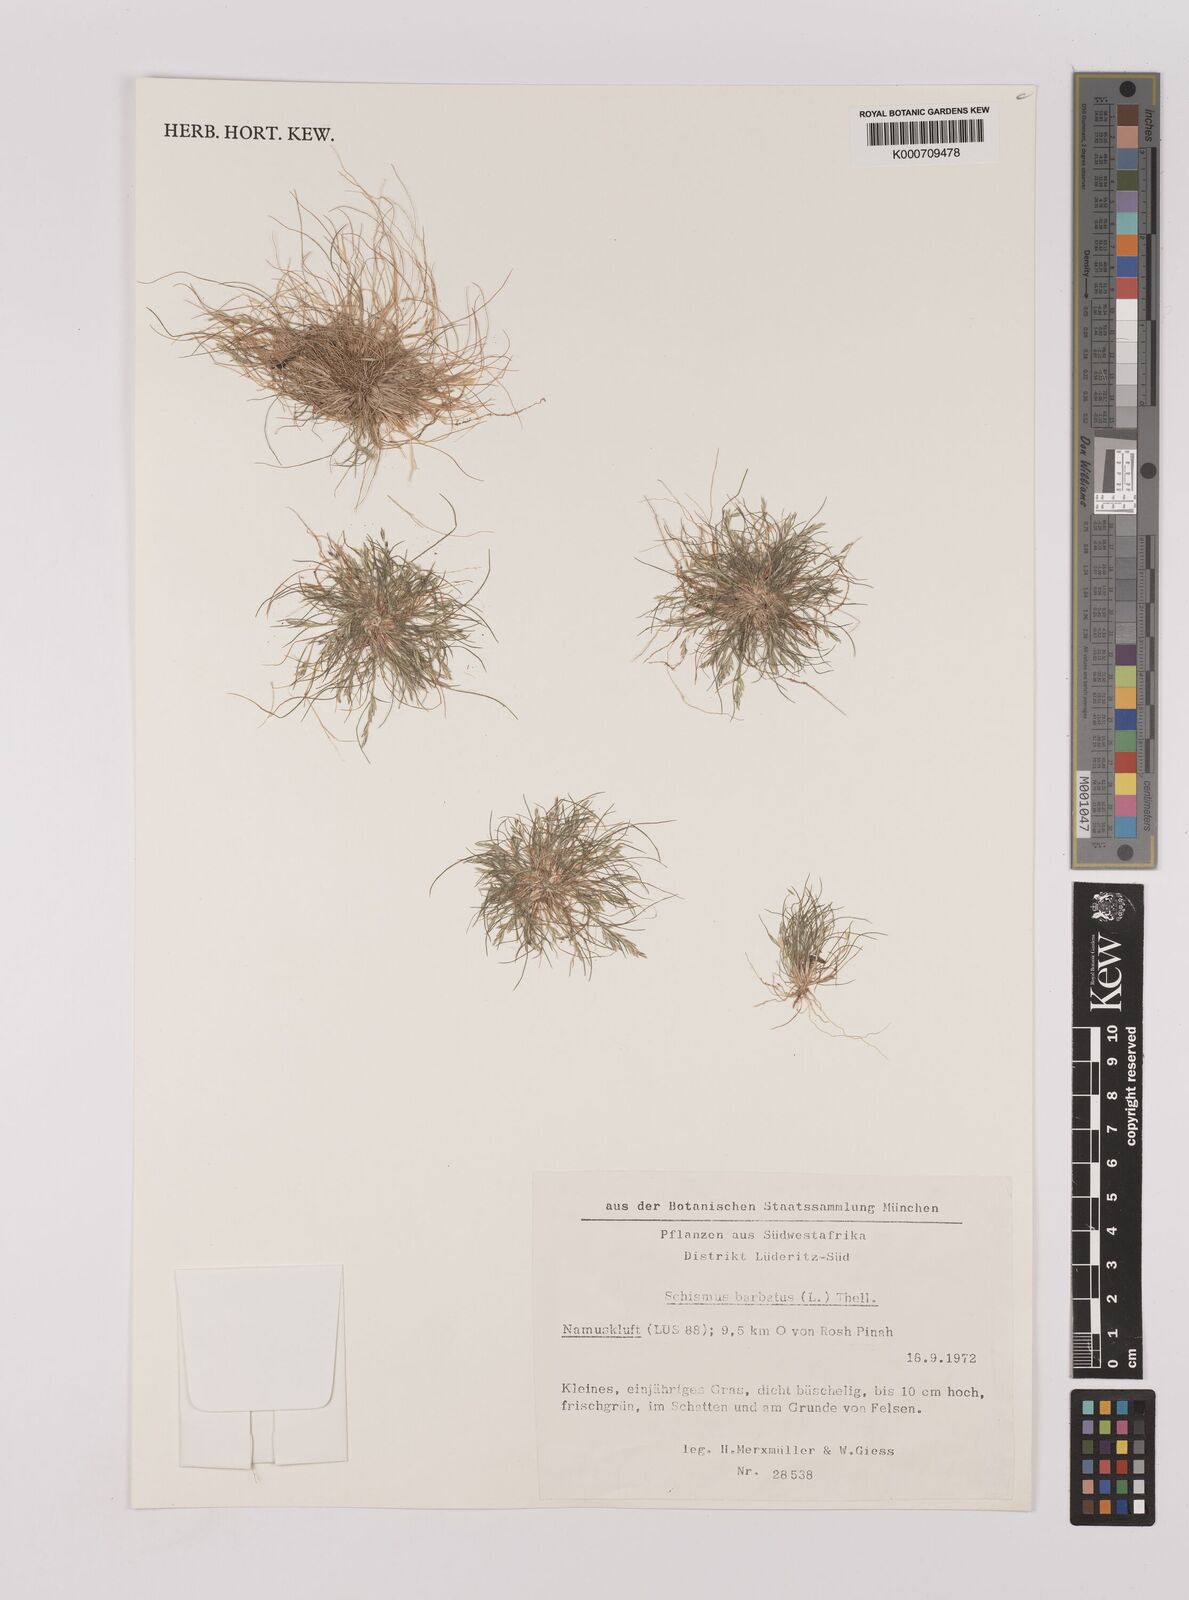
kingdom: Plantae
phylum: Tracheophyta
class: Liliopsida
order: Poales
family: Poaceae
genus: Schismus
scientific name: Schismus barbatus
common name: Kelch-grass
